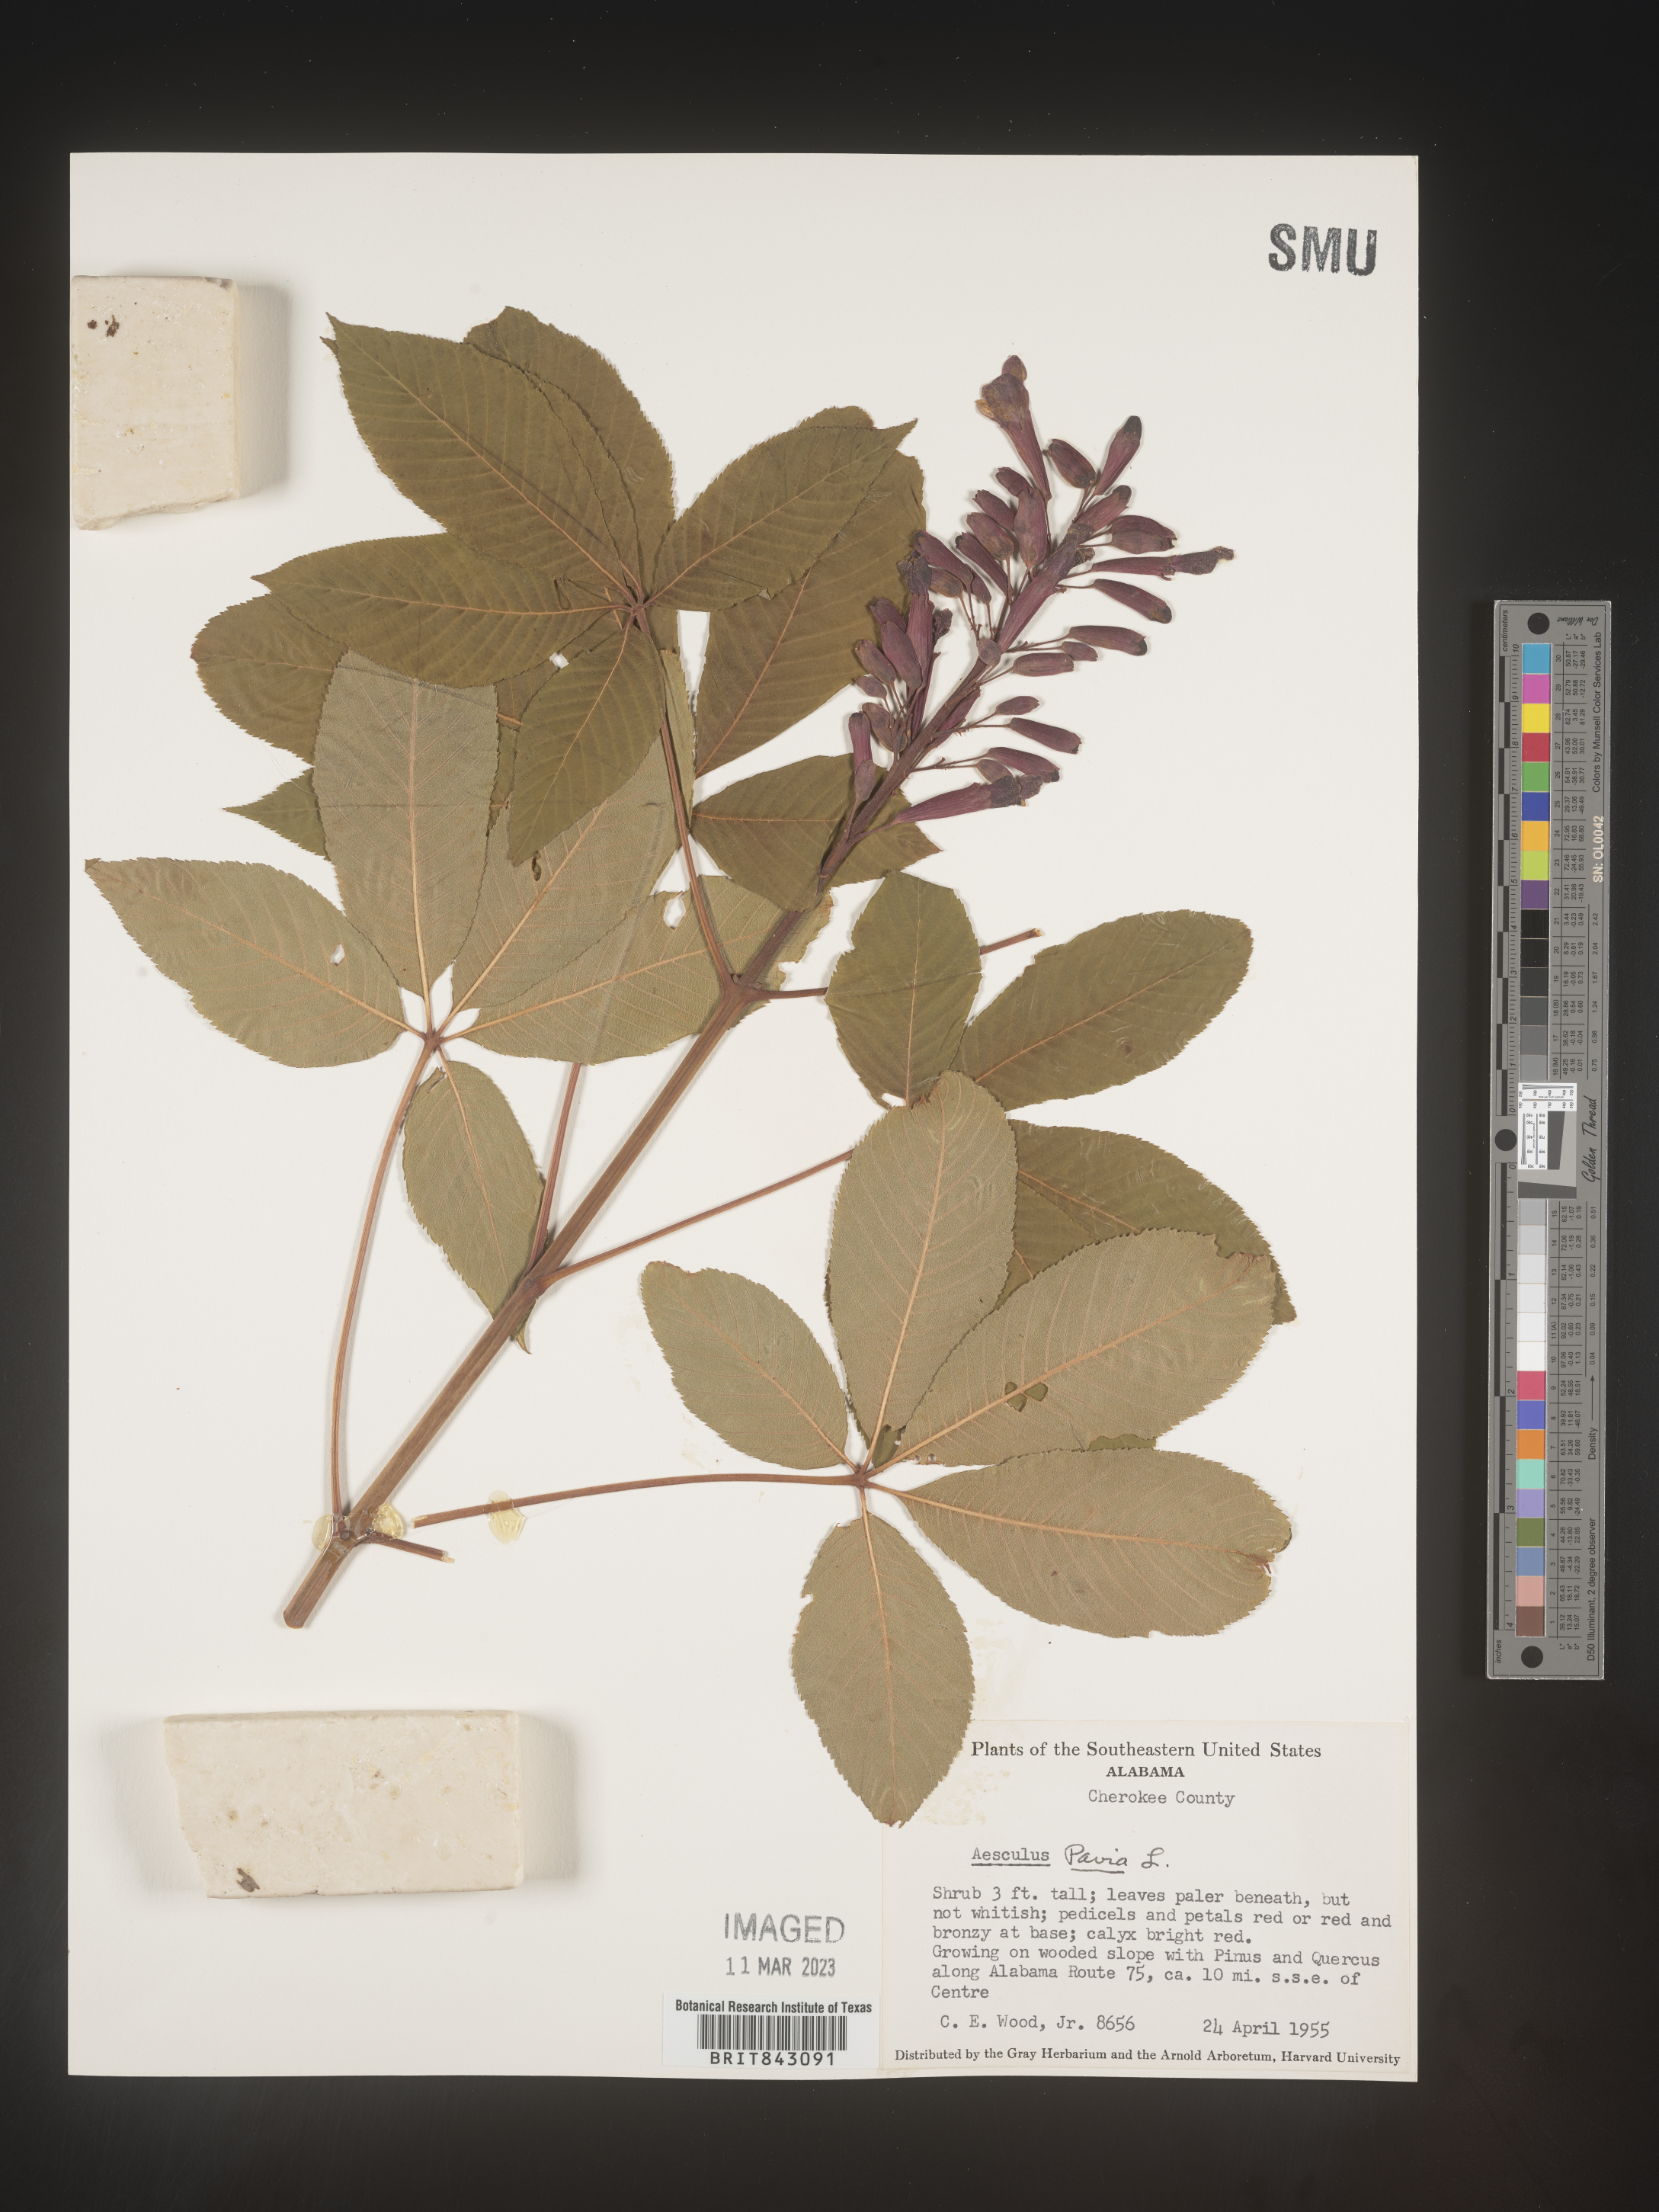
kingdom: Plantae
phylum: Tracheophyta
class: Magnoliopsida
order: Sapindales
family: Sapindaceae
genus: Aesculus
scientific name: Aesculus pavia
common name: Red buckeye
